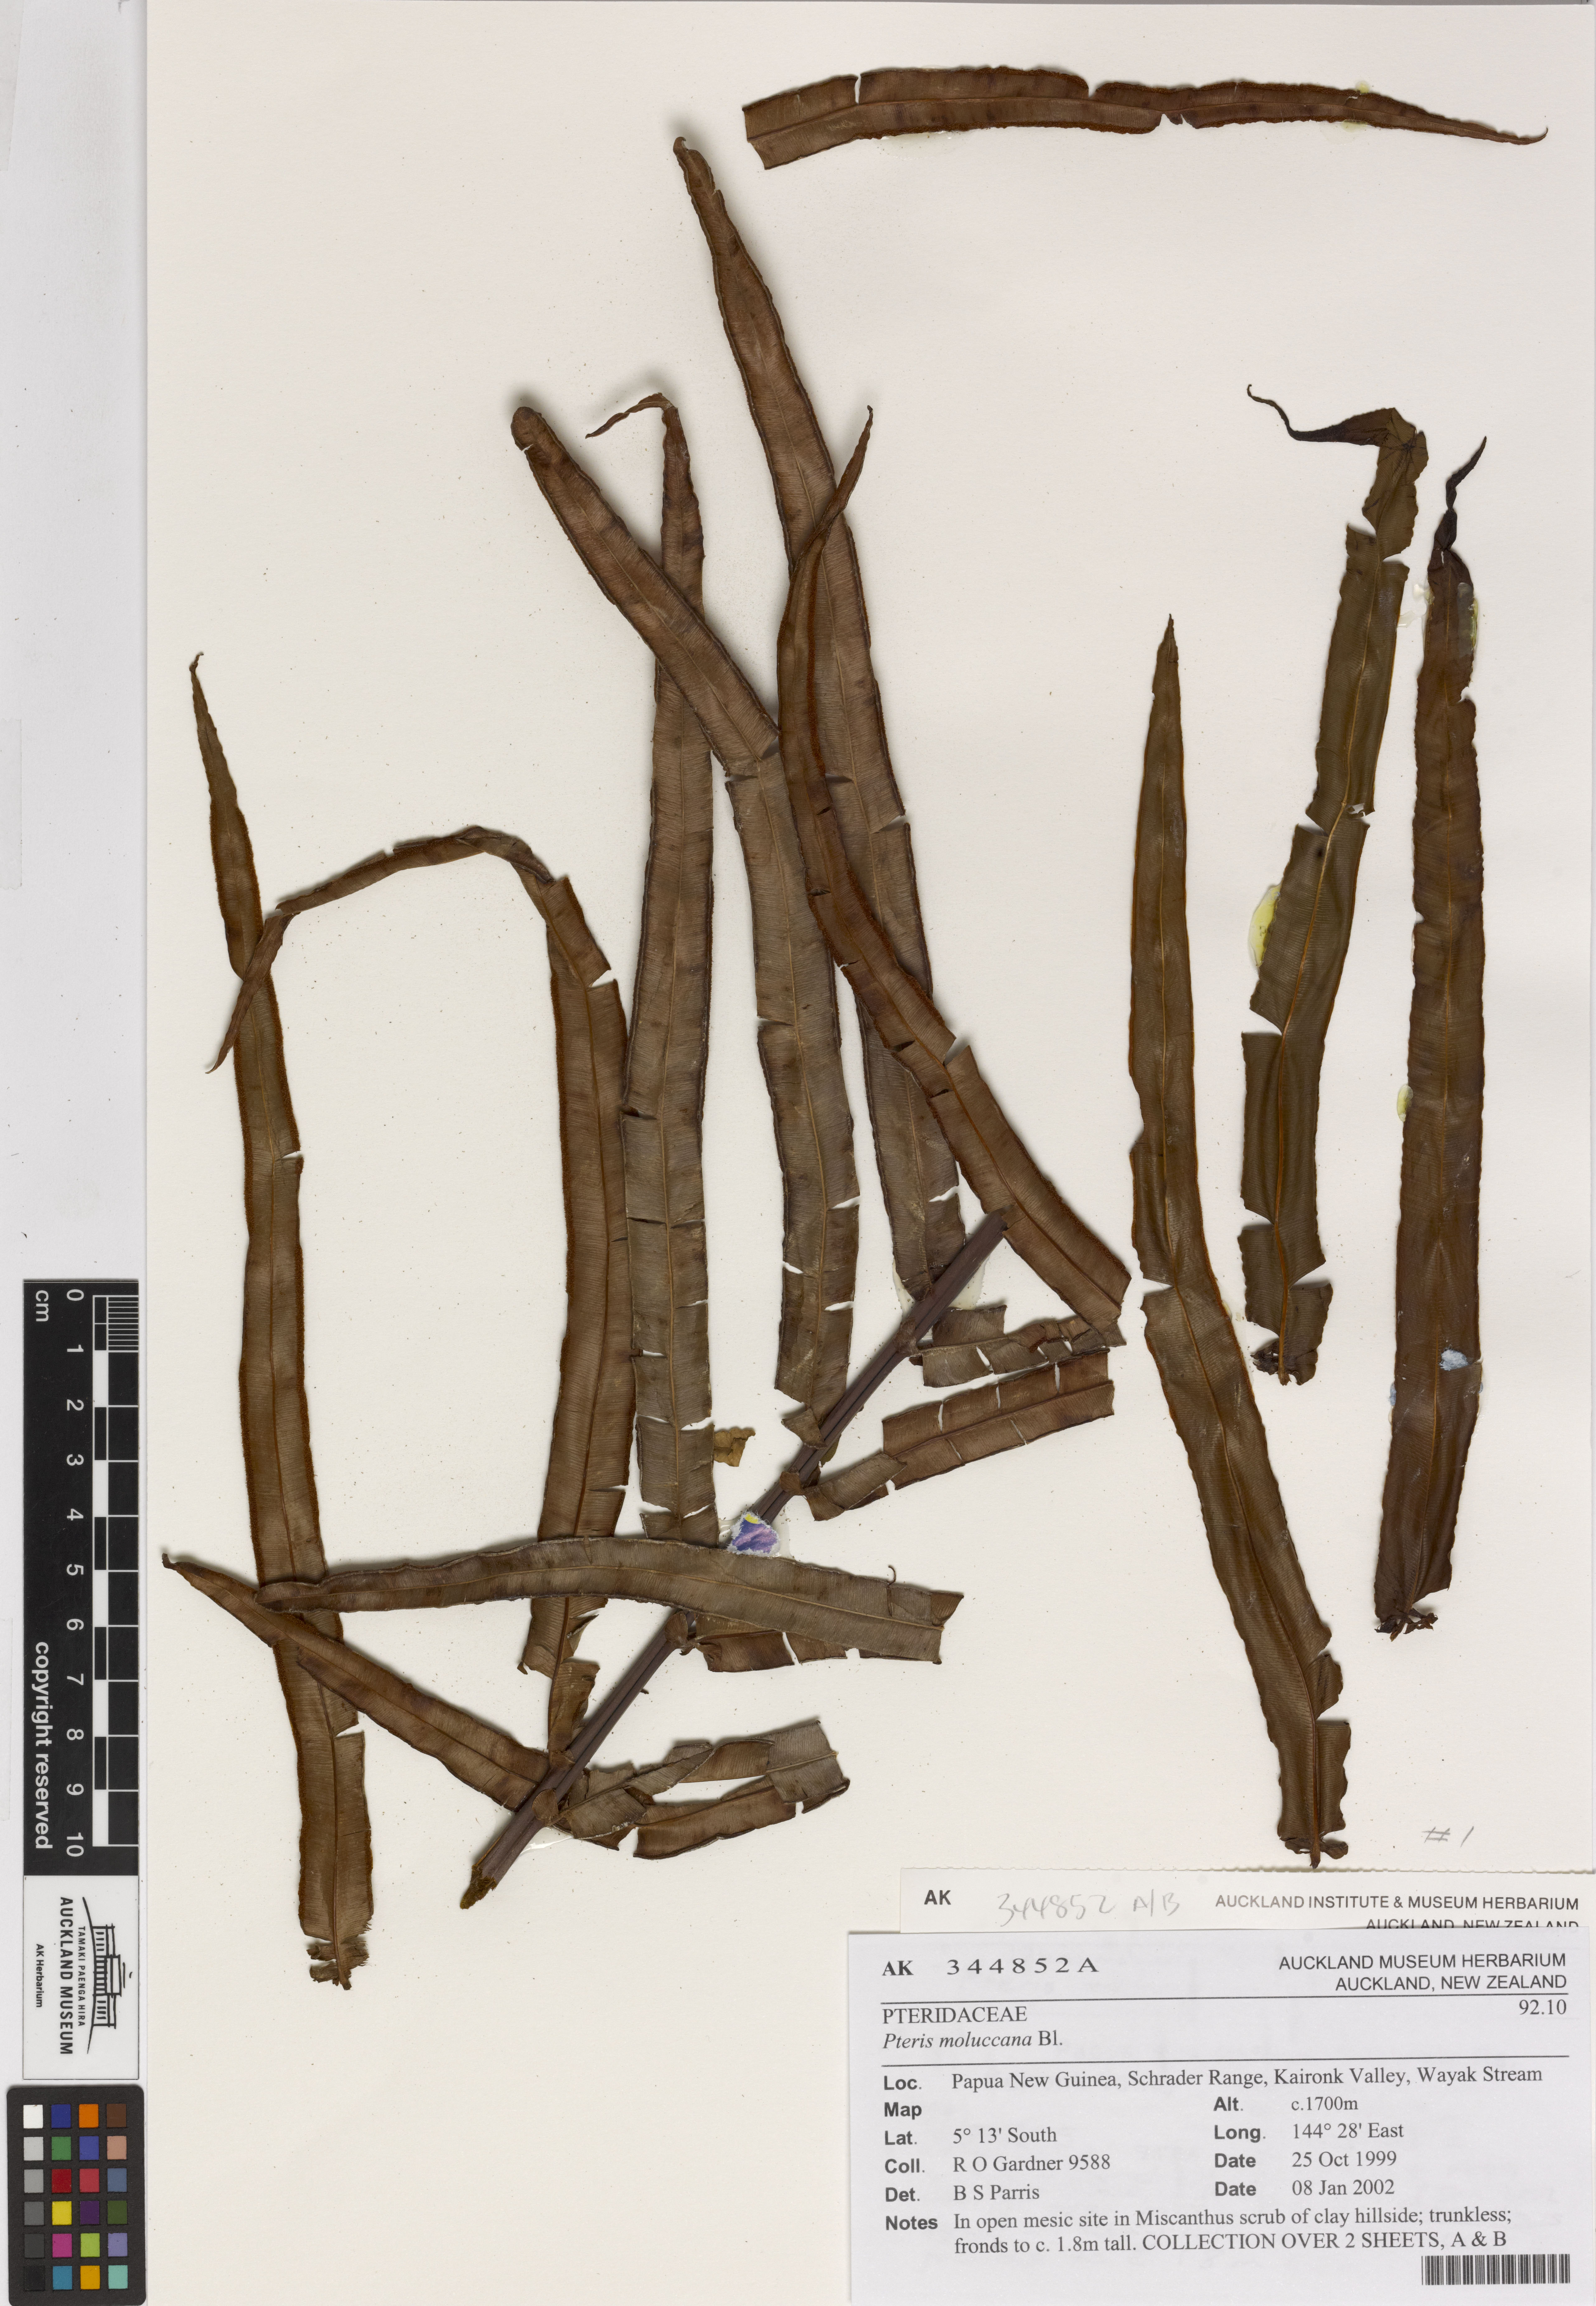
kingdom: Plantae
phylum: Tracheophyta
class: Polypodiopsida
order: Polypodiales
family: Pteridaceae
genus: Pteris
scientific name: Pteris moluccana
